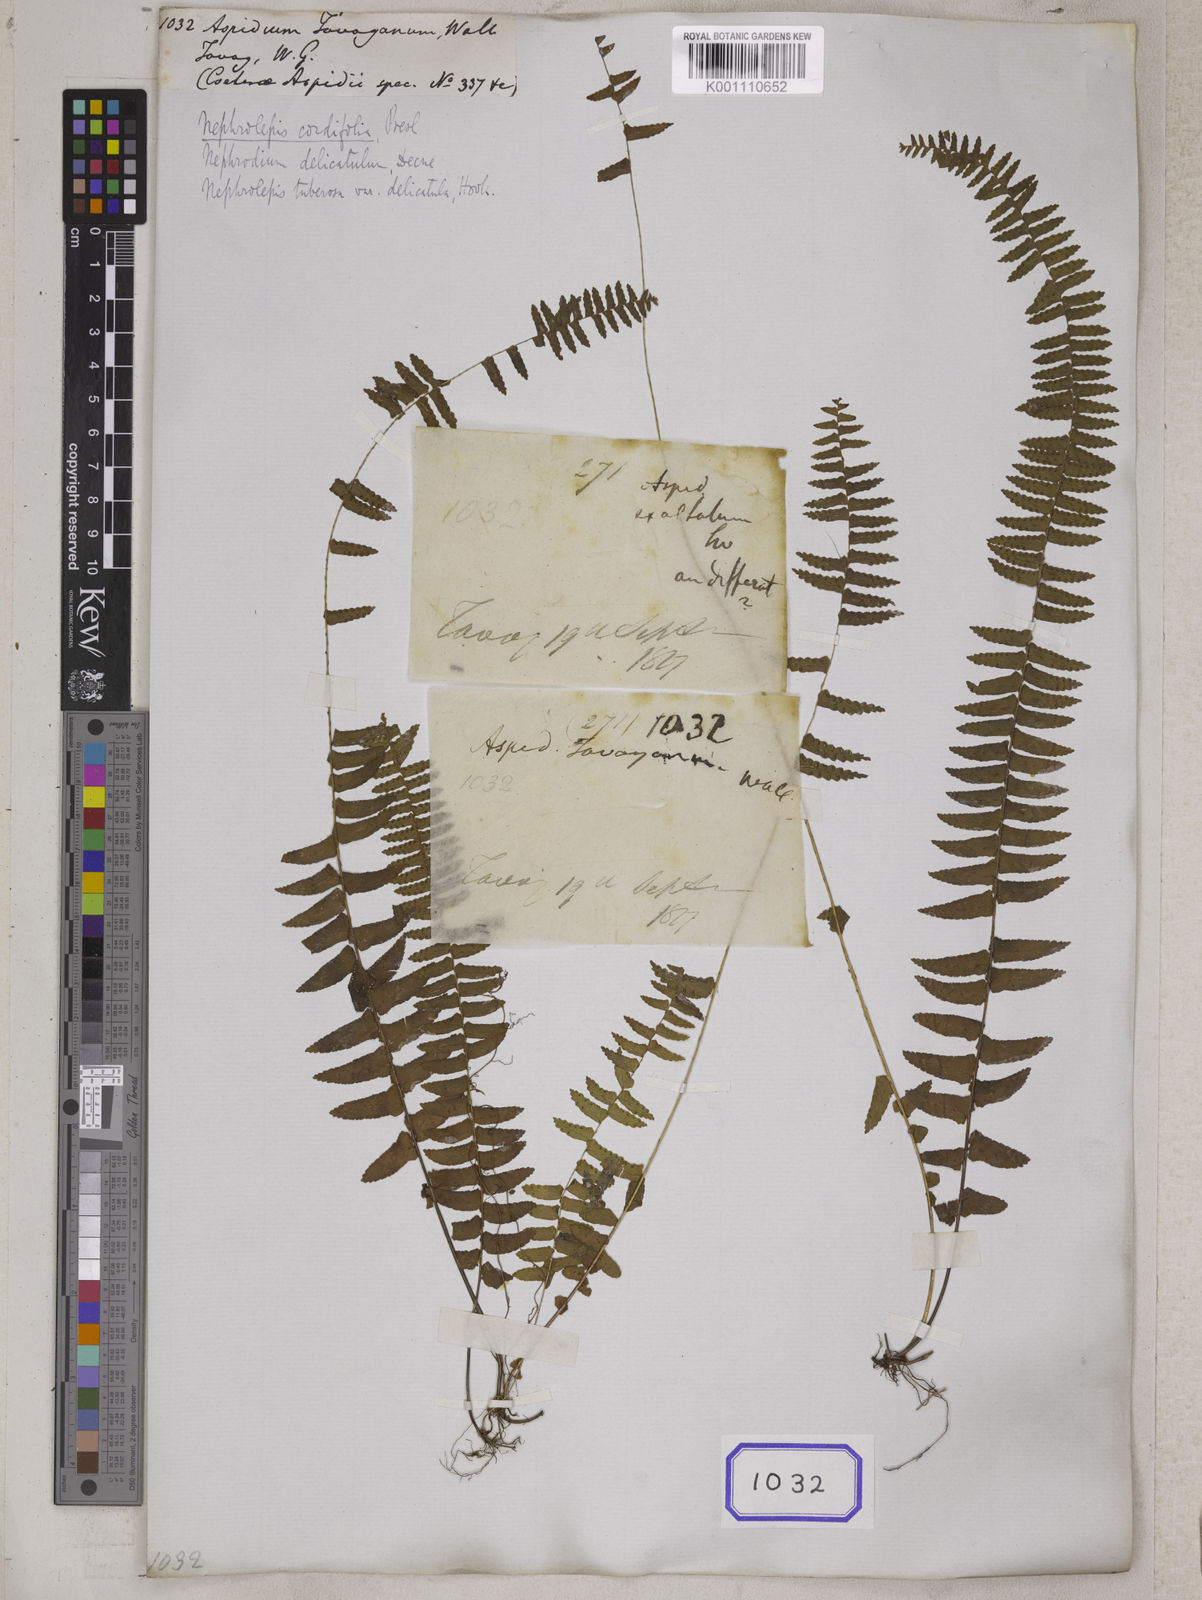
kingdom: Plantae
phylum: Tracheophyta
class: Polypodiopsida
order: Polypodiales
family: Nephrolepidaceae
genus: Nephrolepis
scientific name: Nephrolepis delicatula
